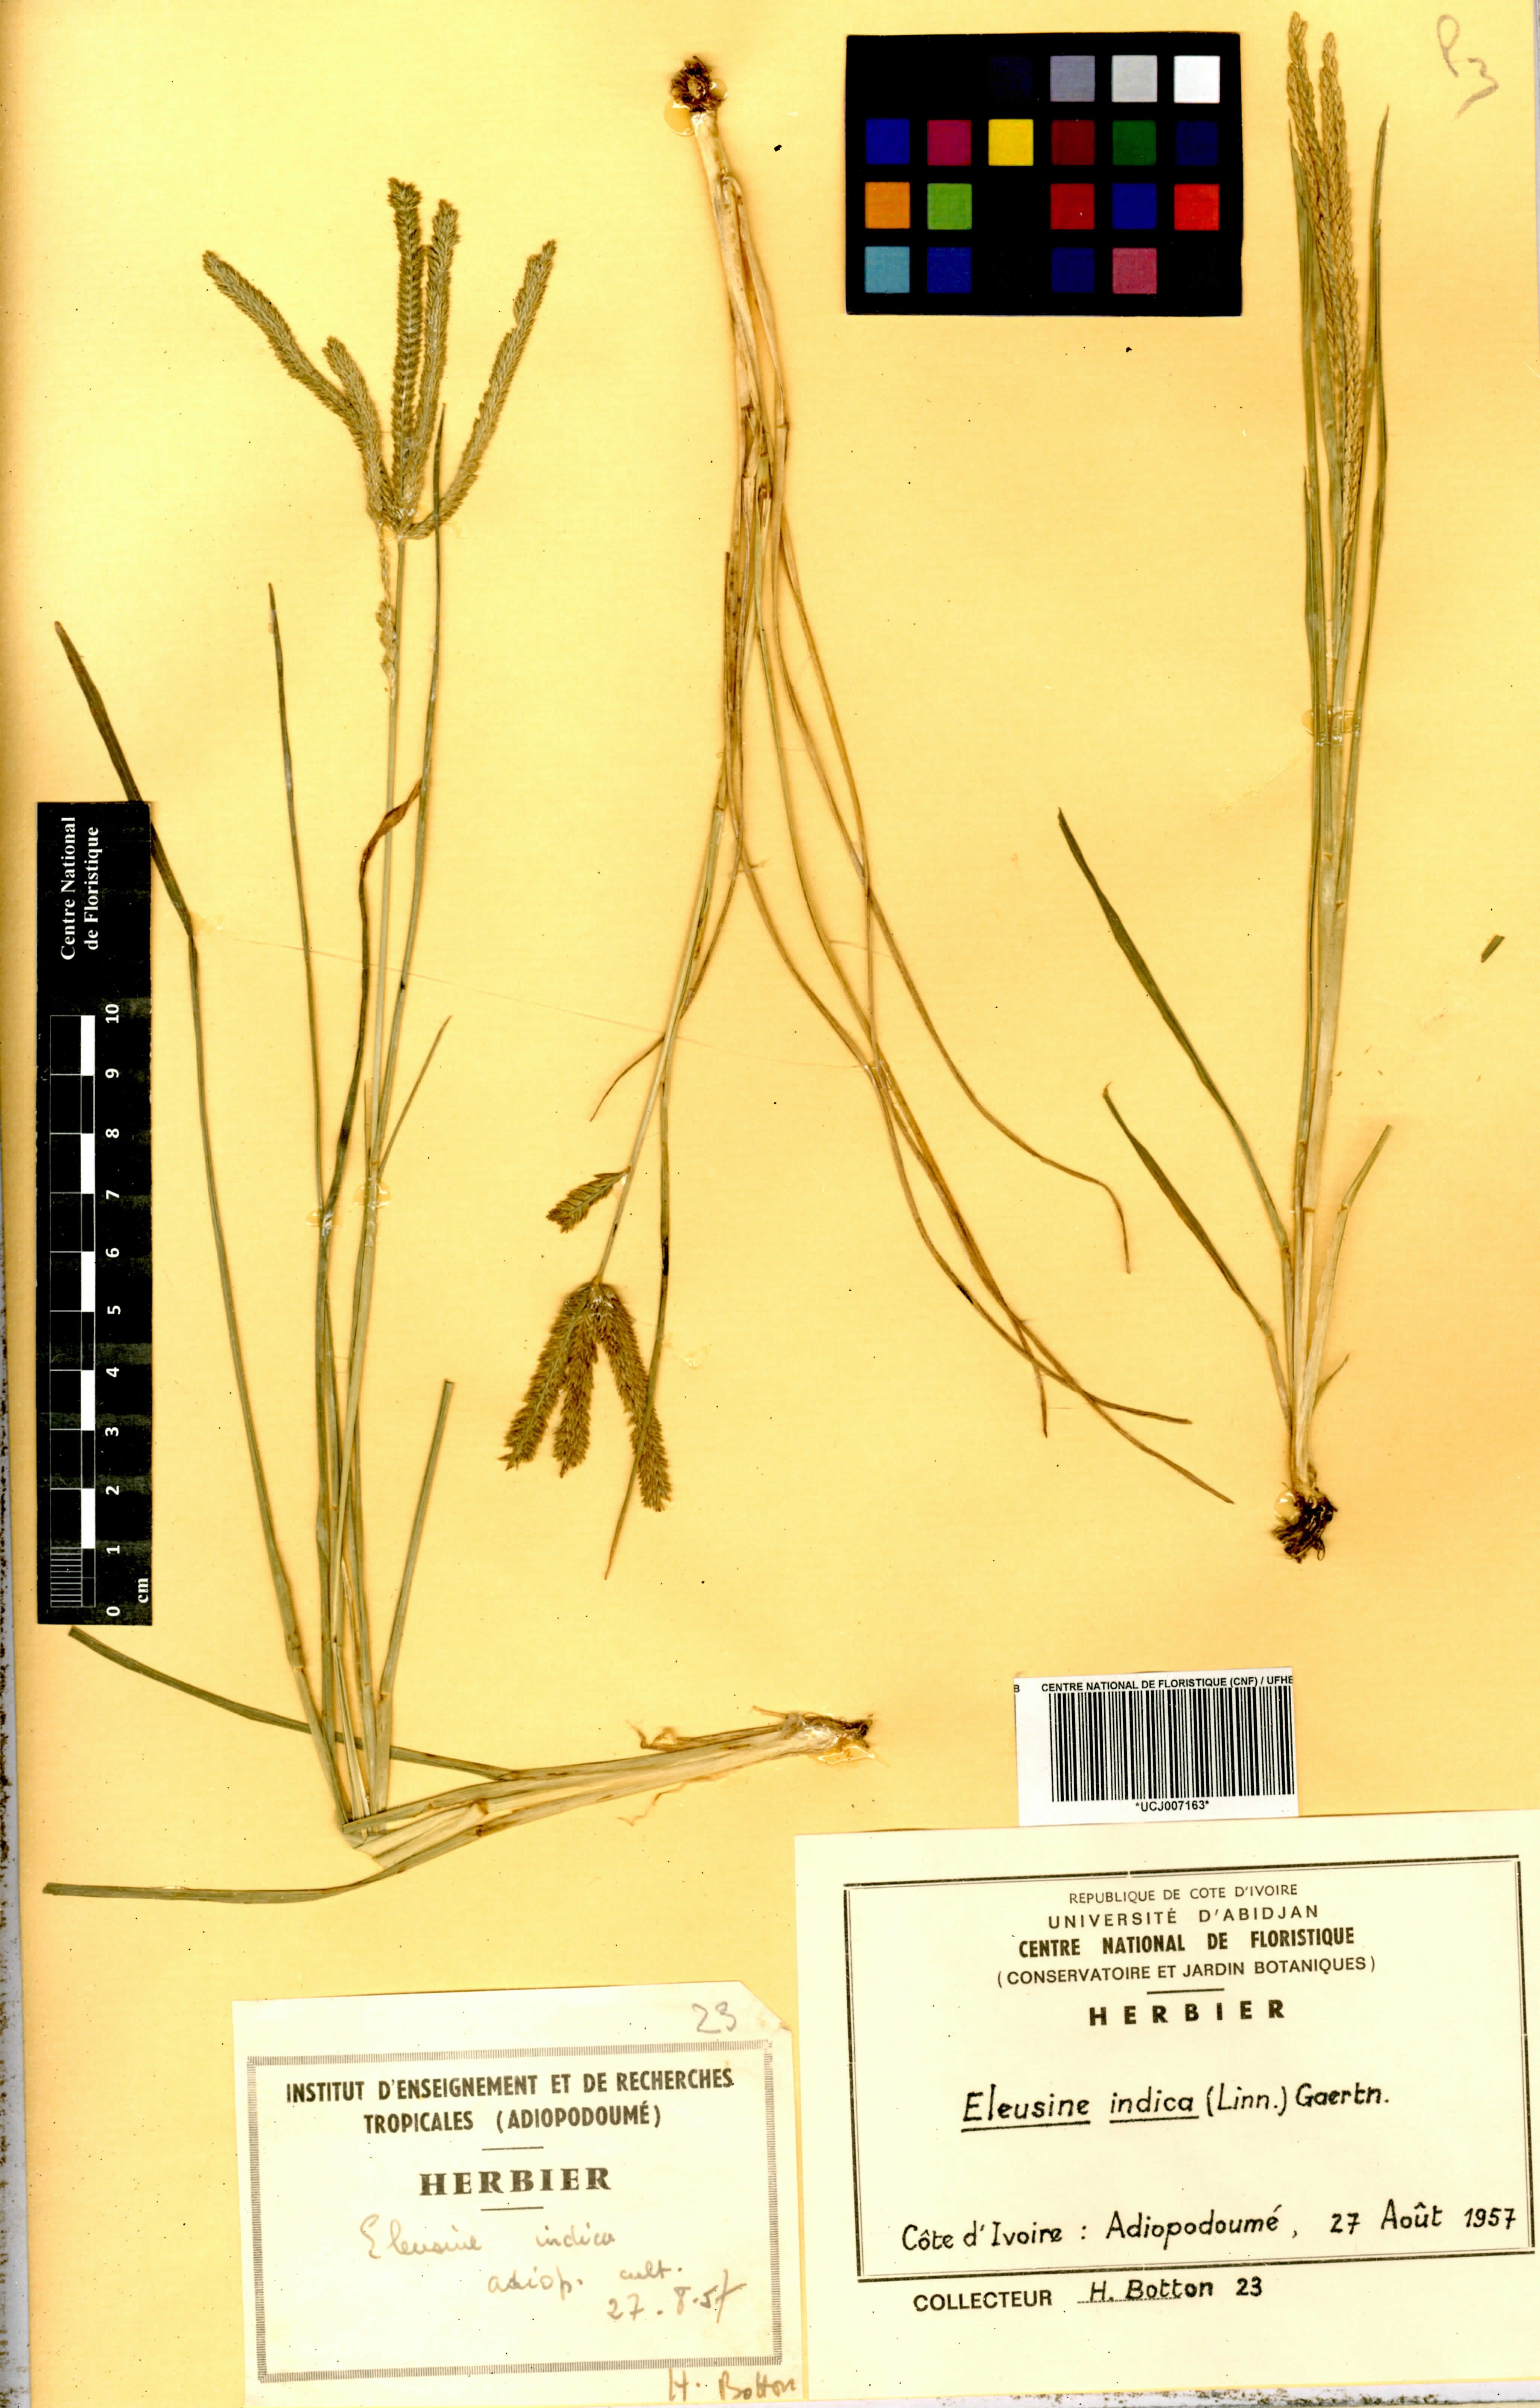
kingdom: Plantae
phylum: Tracheophyta
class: Liliopsida
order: Poales
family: Poaceae
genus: Eleusine
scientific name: Eleusine indica
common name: Yard-grass
